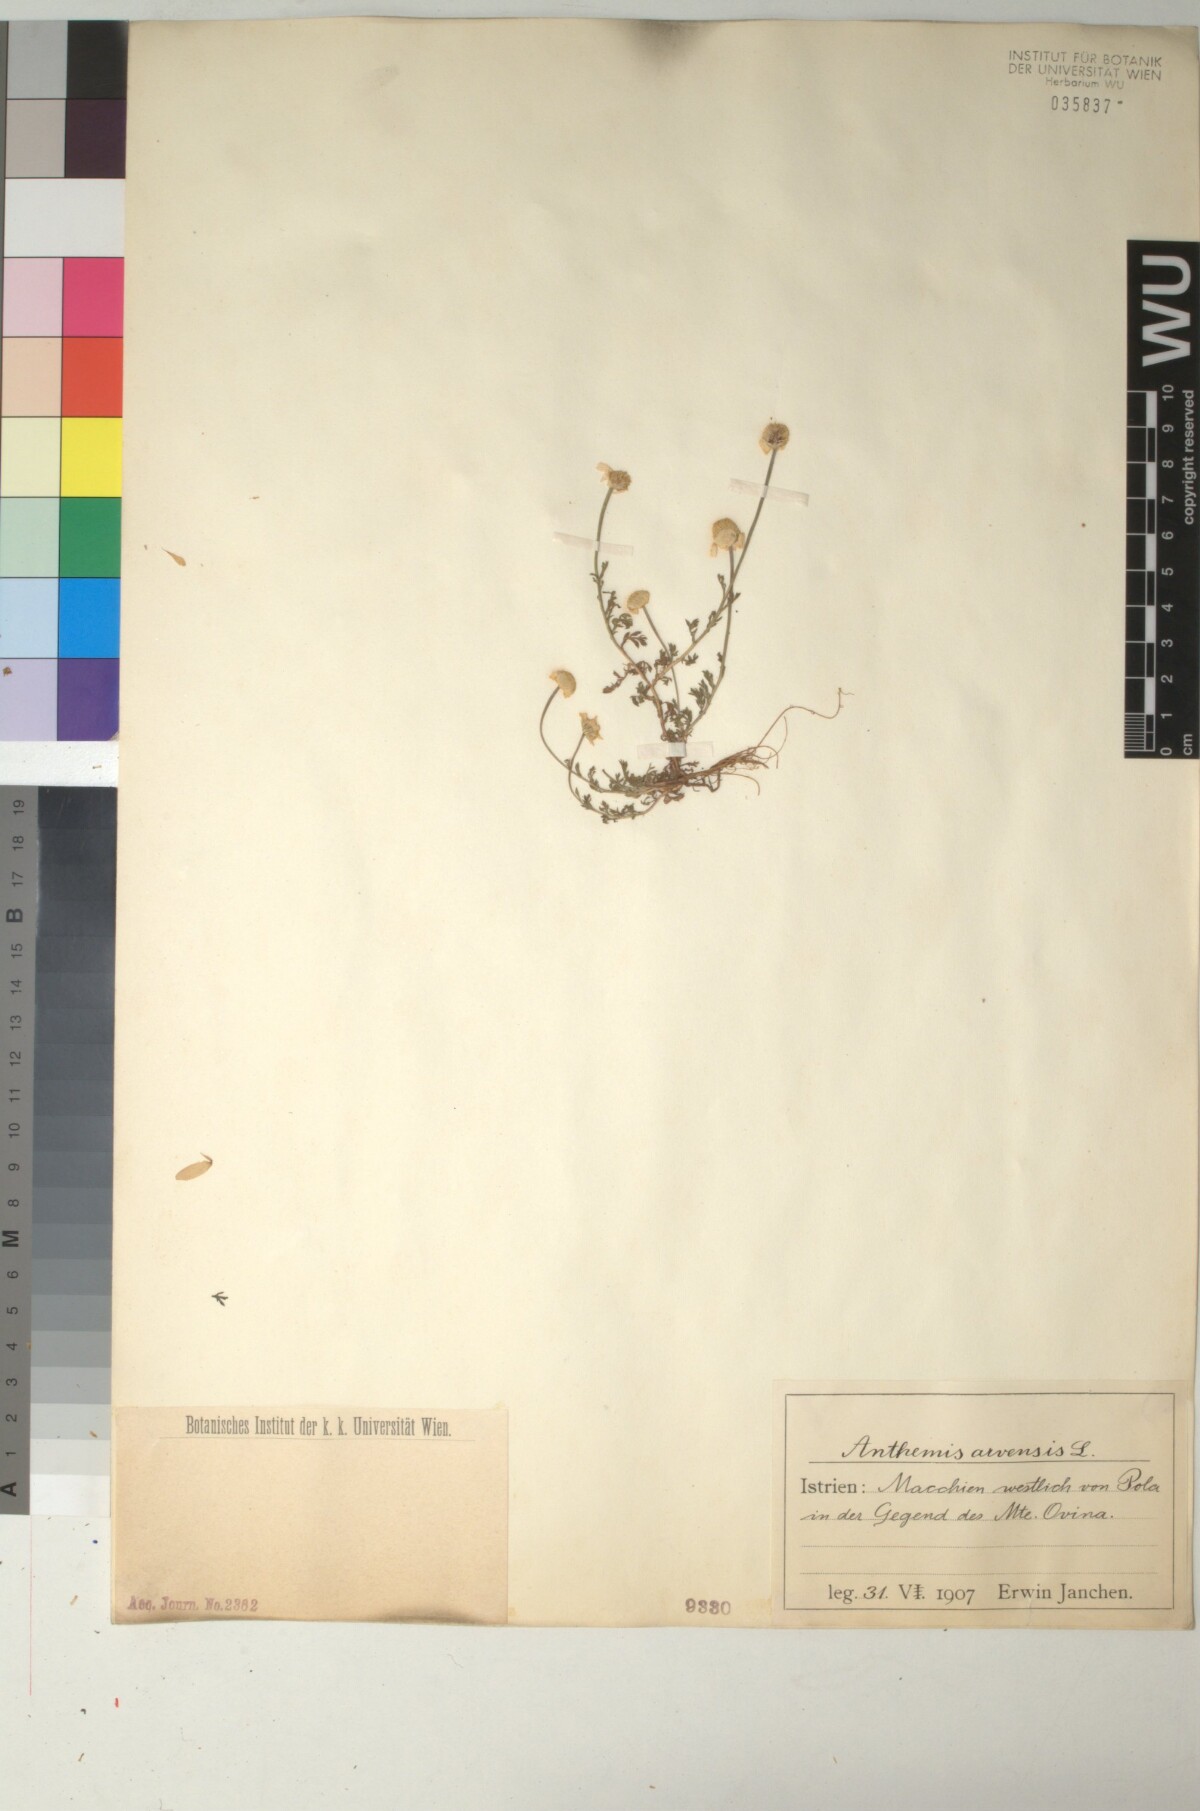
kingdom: Plantae
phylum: Tracheophyta
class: Magnoliopsida
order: Asterales
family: Asteraceae
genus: Anthemis
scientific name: Anthemis arvensis
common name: Corn chamomile
